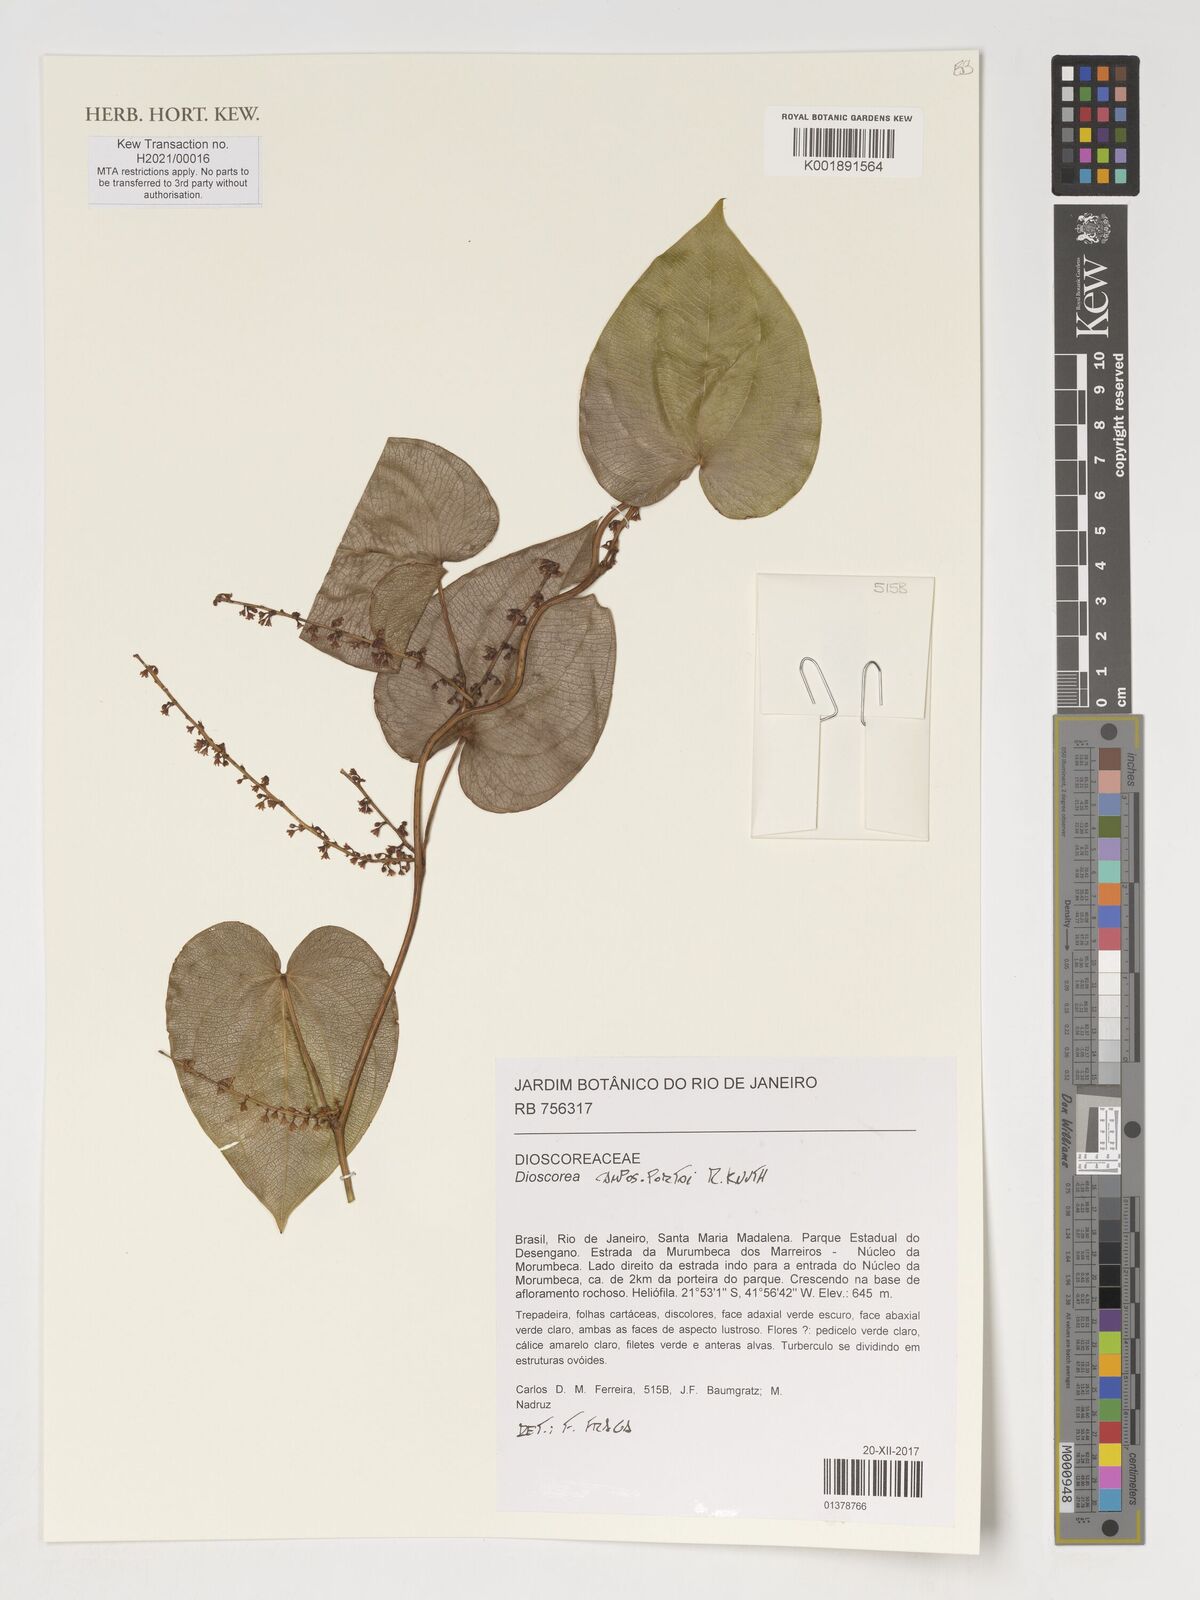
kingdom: Plantae
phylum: Tracheophyta
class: Liliopsida
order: Dioscoreales
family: Dioscoreaceae
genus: Dioscorea
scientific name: Dioscorea campos-portoi
